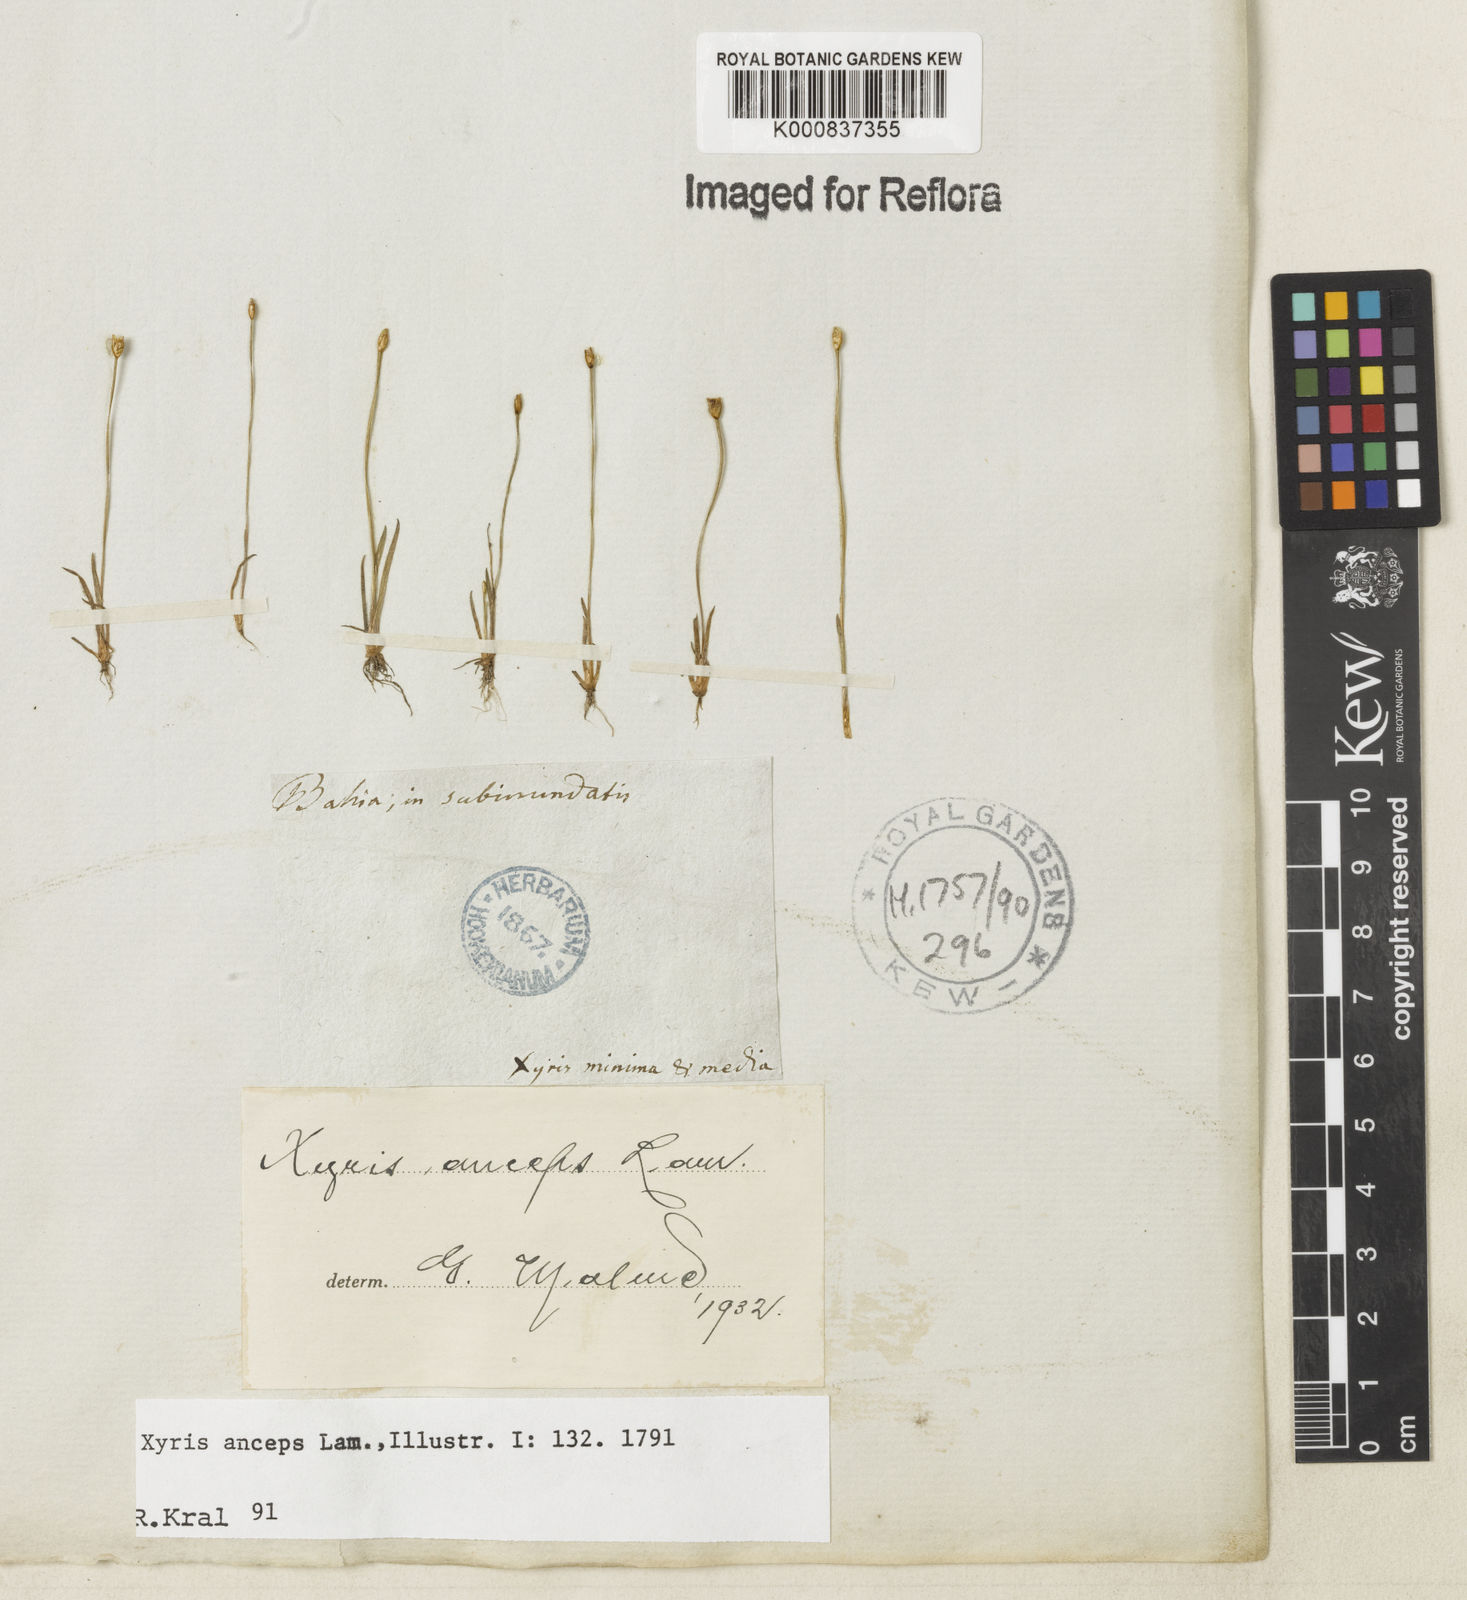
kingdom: Plantae
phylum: Tracheophyta
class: Liliopsida
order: Poales
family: Xyridaceae
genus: Xyris
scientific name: Xyris
